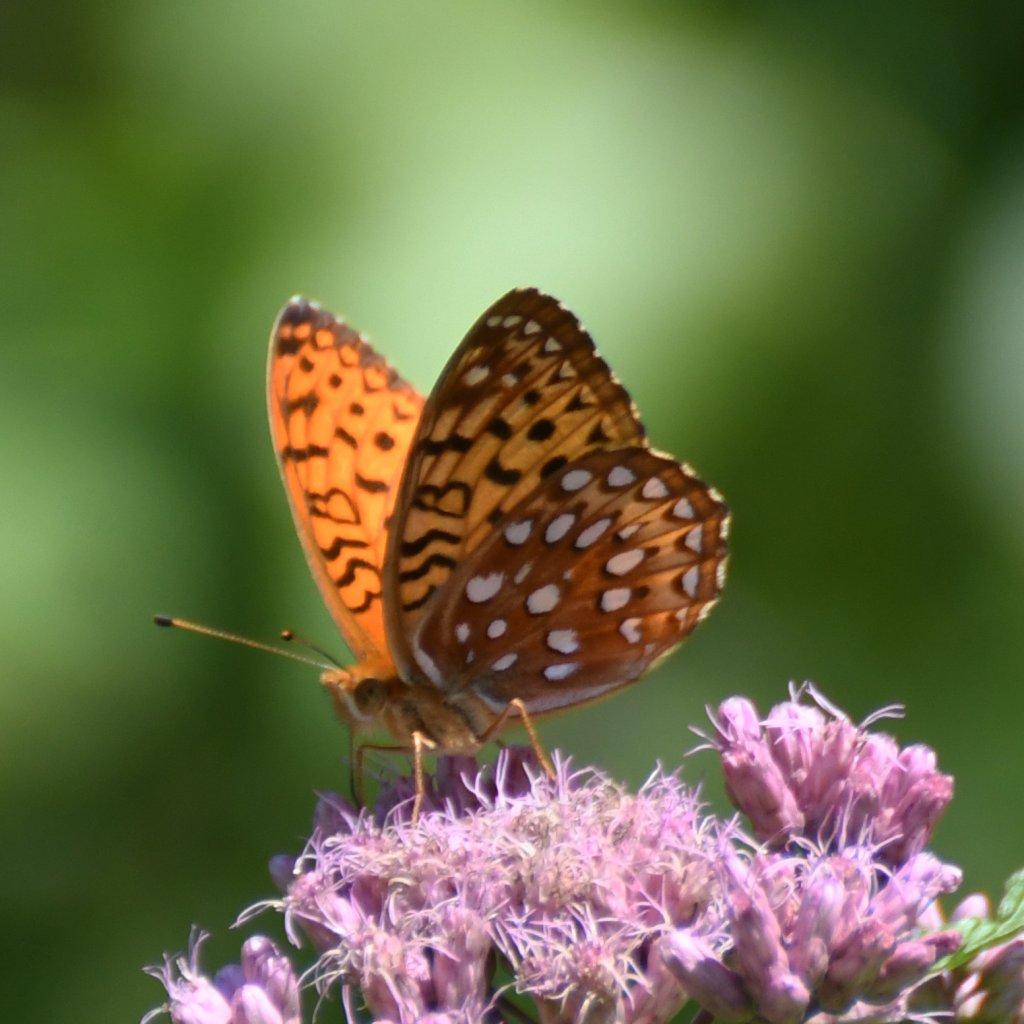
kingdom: Animalia
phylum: Arthropoda
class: Insecta
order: Lepidoptera
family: Nymphalidae
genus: Speyeria
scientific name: Speyeria aphrodite
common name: Aphrodite Fritillary
